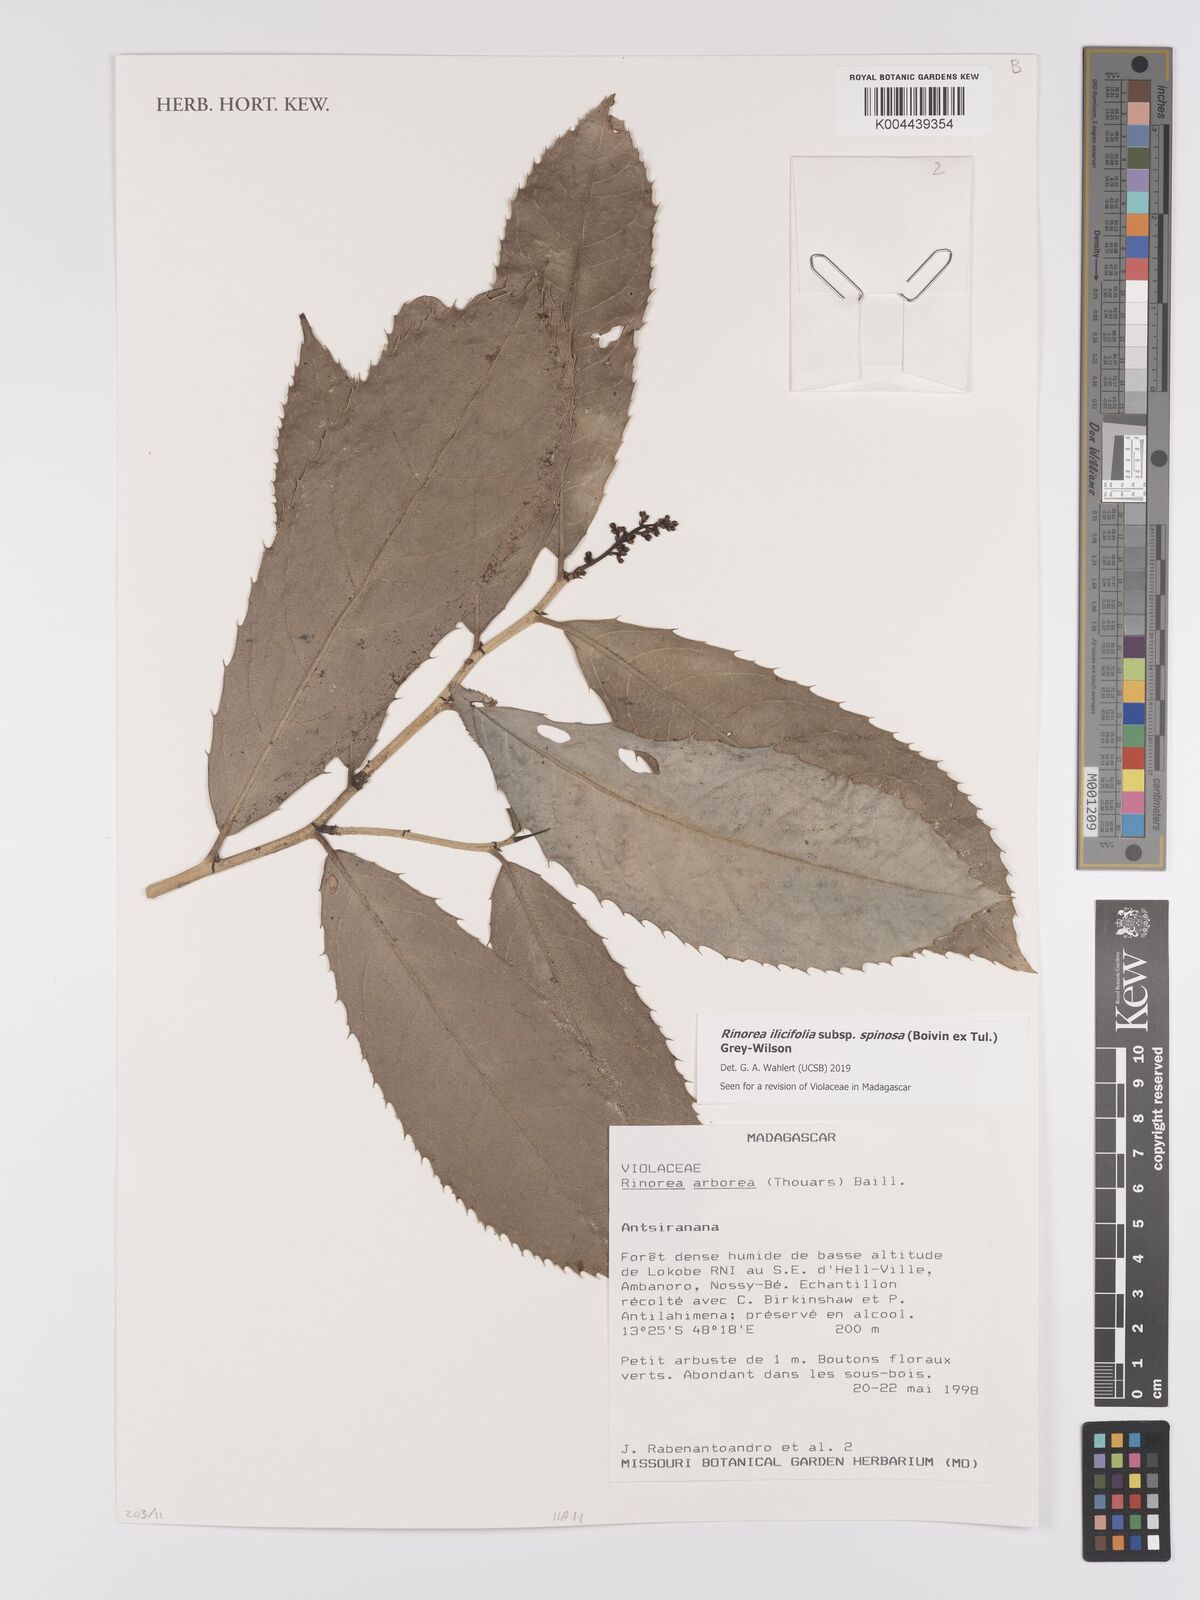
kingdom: Plantae
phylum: Tracheophyta
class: Magnoliopsida
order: Malpighiales
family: Violaceae
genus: Rinorea
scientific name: Rinorea spinosa
